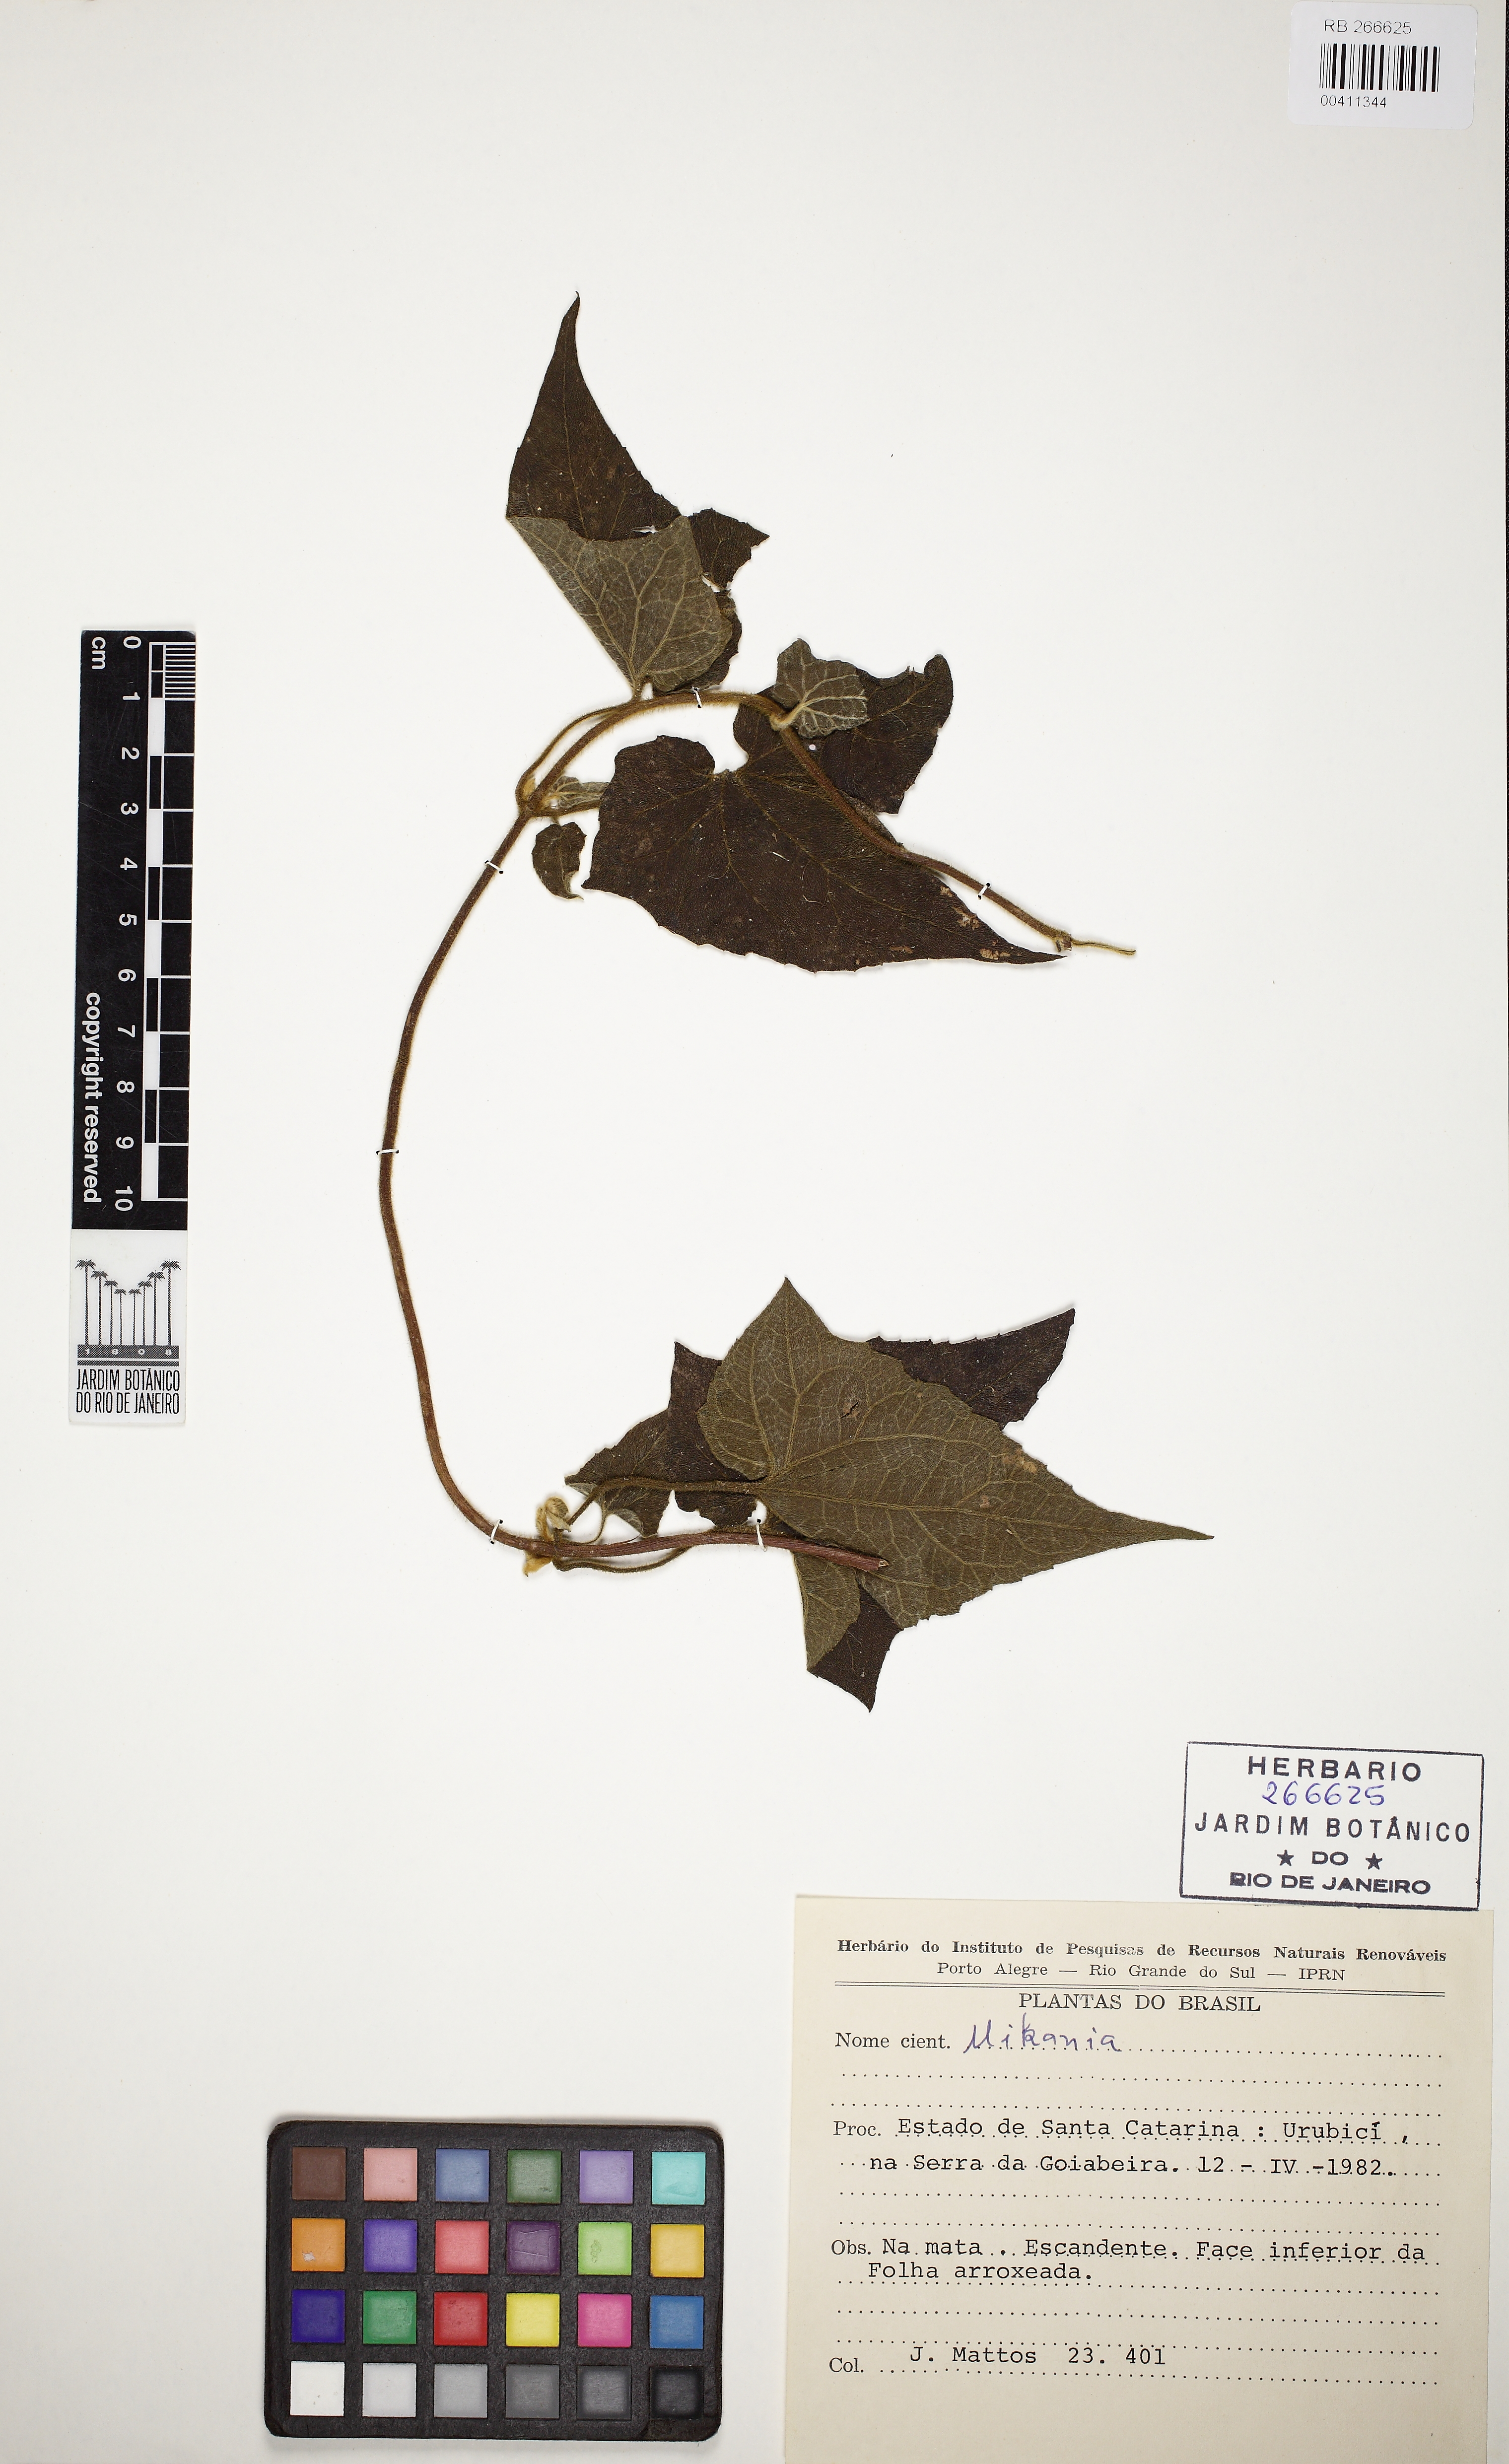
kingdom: Plantae
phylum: Tracheophyta
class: Magnoliopsida
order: Asterales
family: Asteraceae
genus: Mikania
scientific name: Mikania
